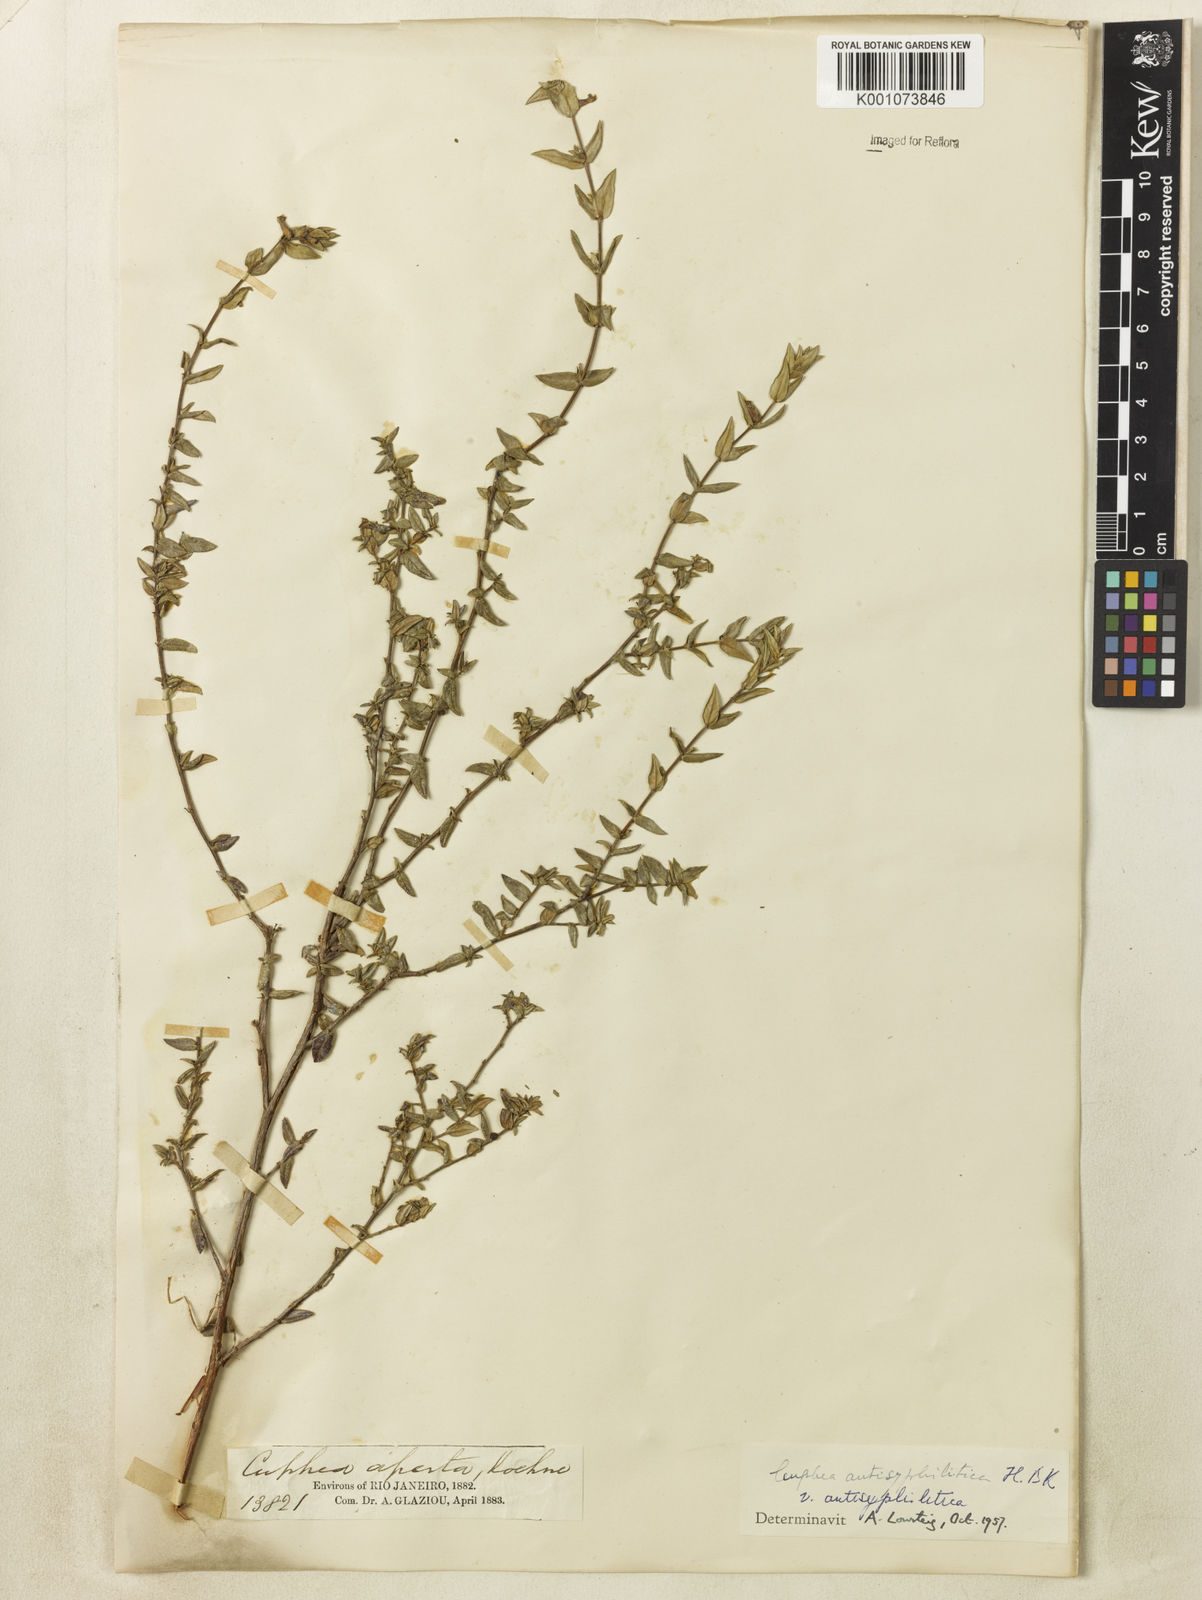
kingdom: Plantae
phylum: Tracheophyta
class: Magnoliopsida
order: Myrtales
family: Lythraceae
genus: Cuphea
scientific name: Cuphea antisyphilitica
